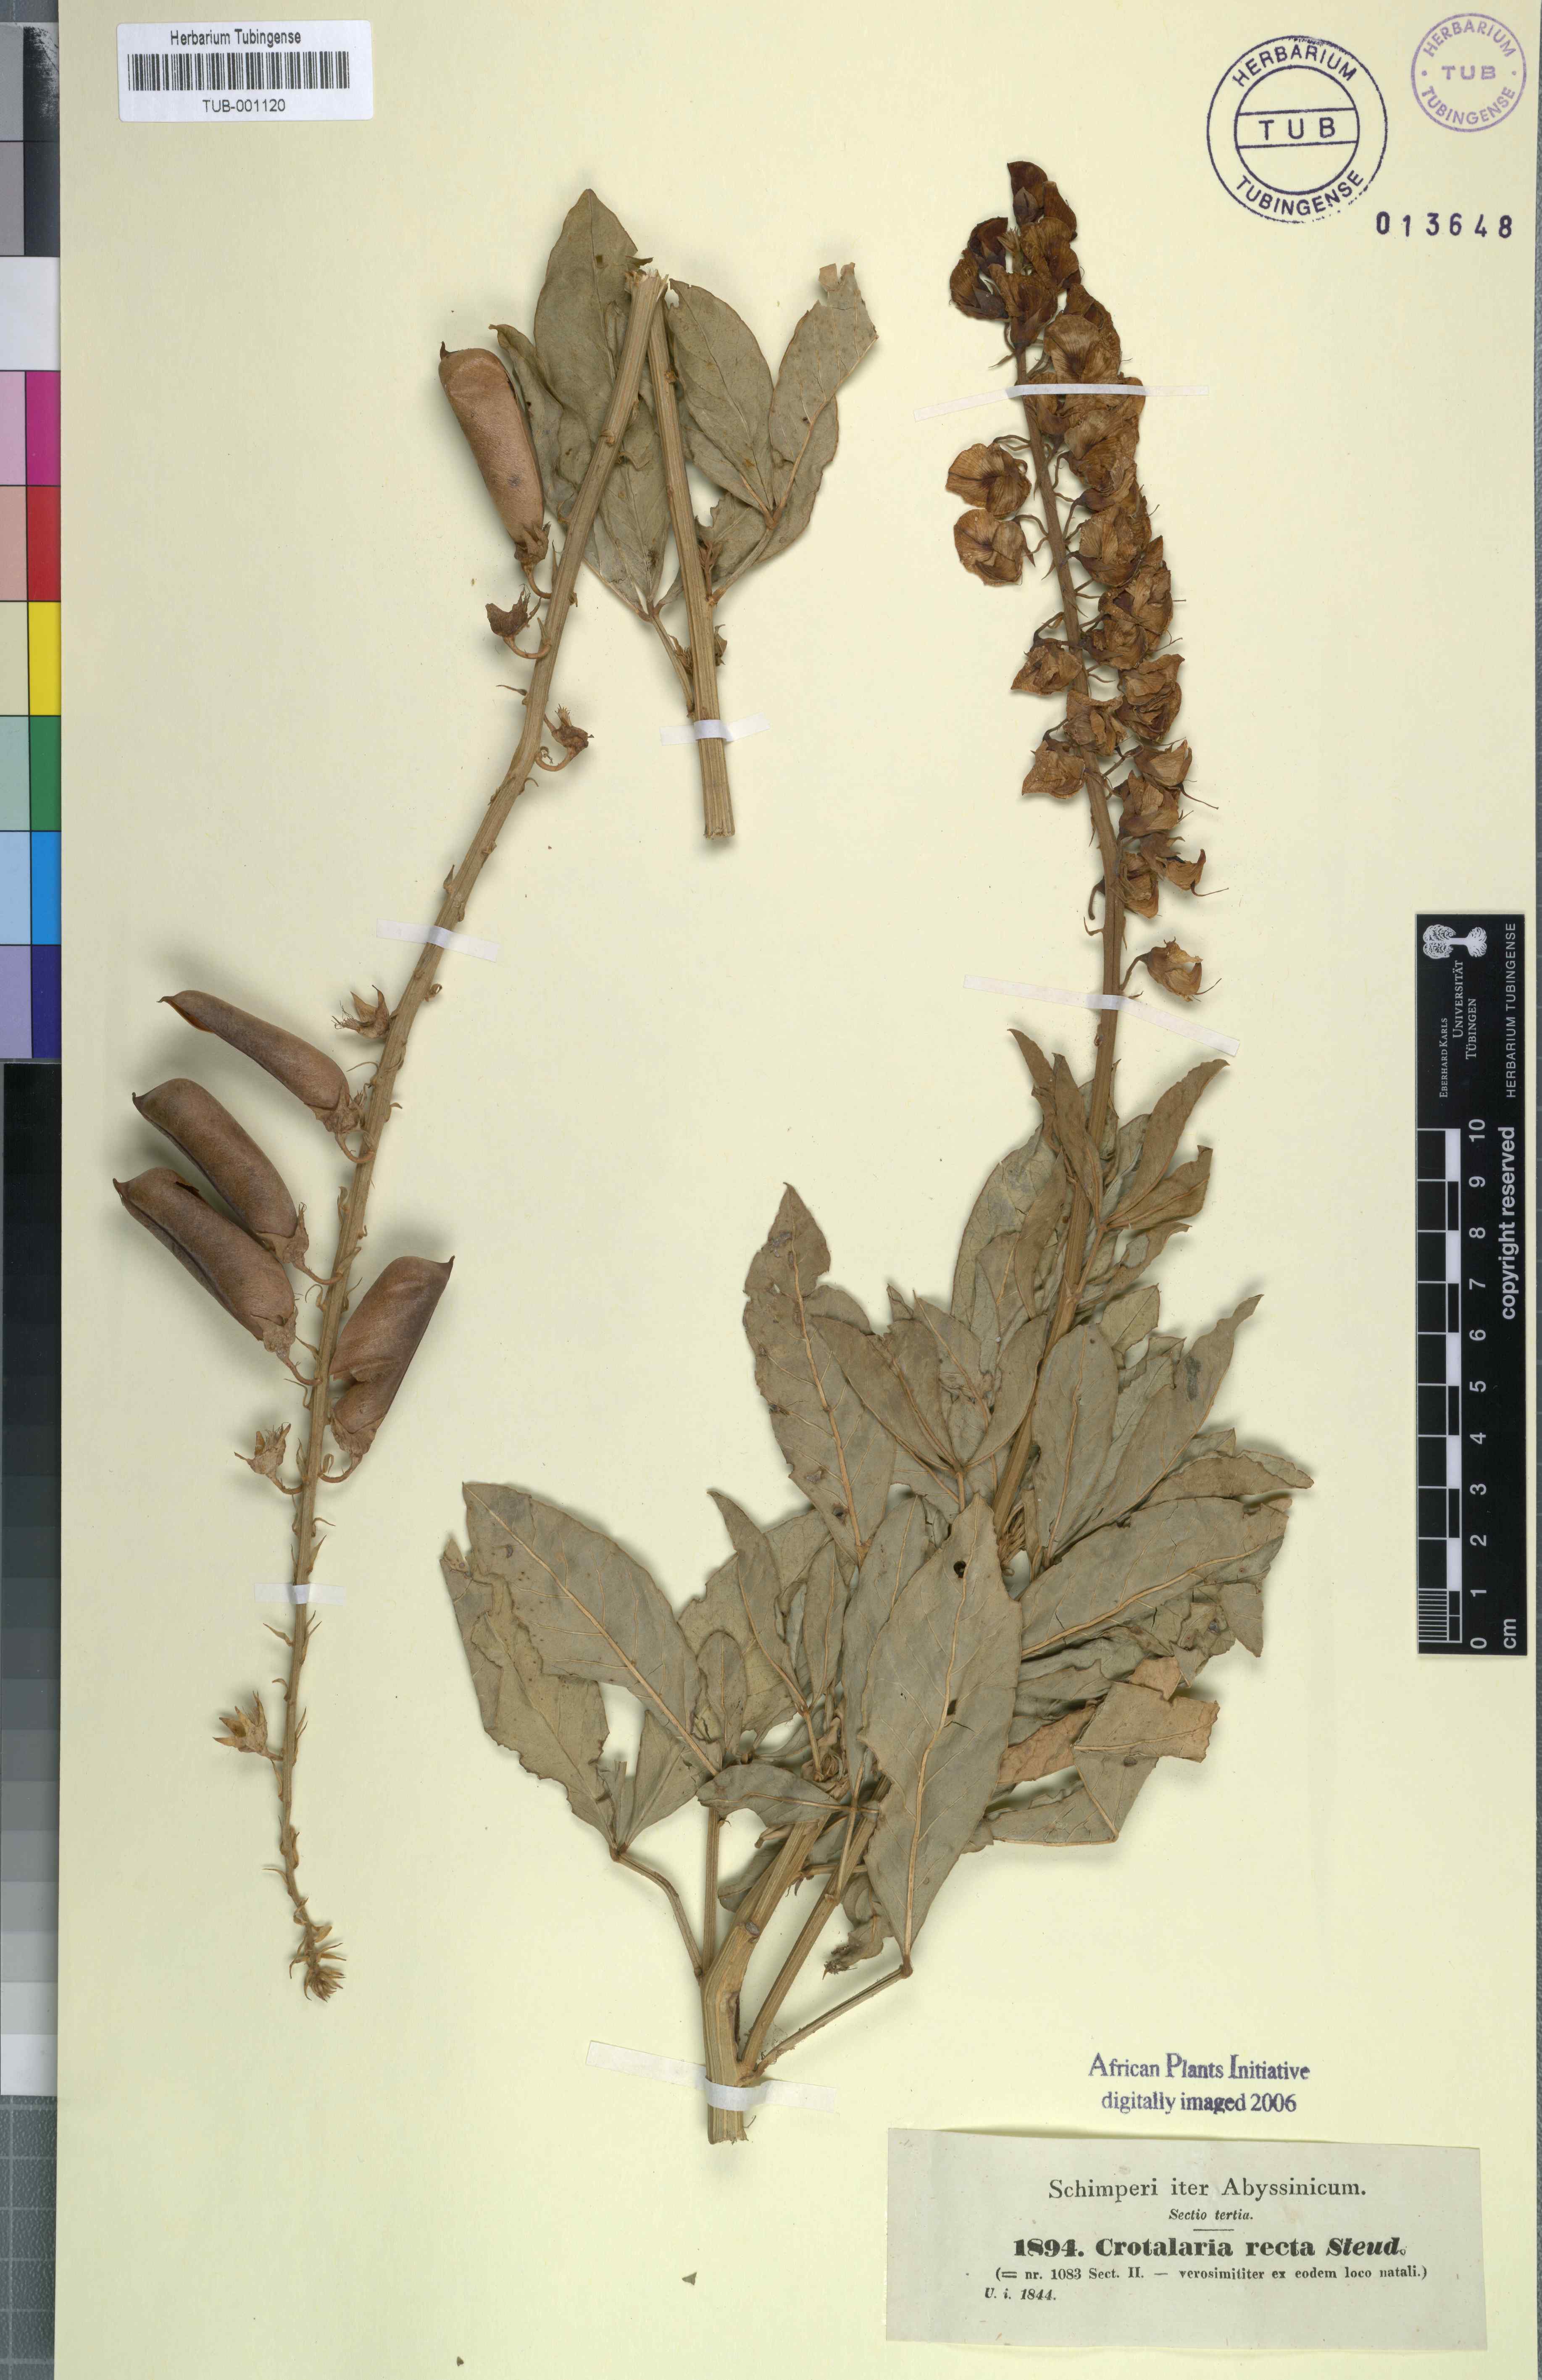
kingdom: Plantae
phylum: Tracheophyta
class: Magnoliopsida
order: Fabales
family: Fabaceae
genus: Crotalaria
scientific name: Crotalaria recta
